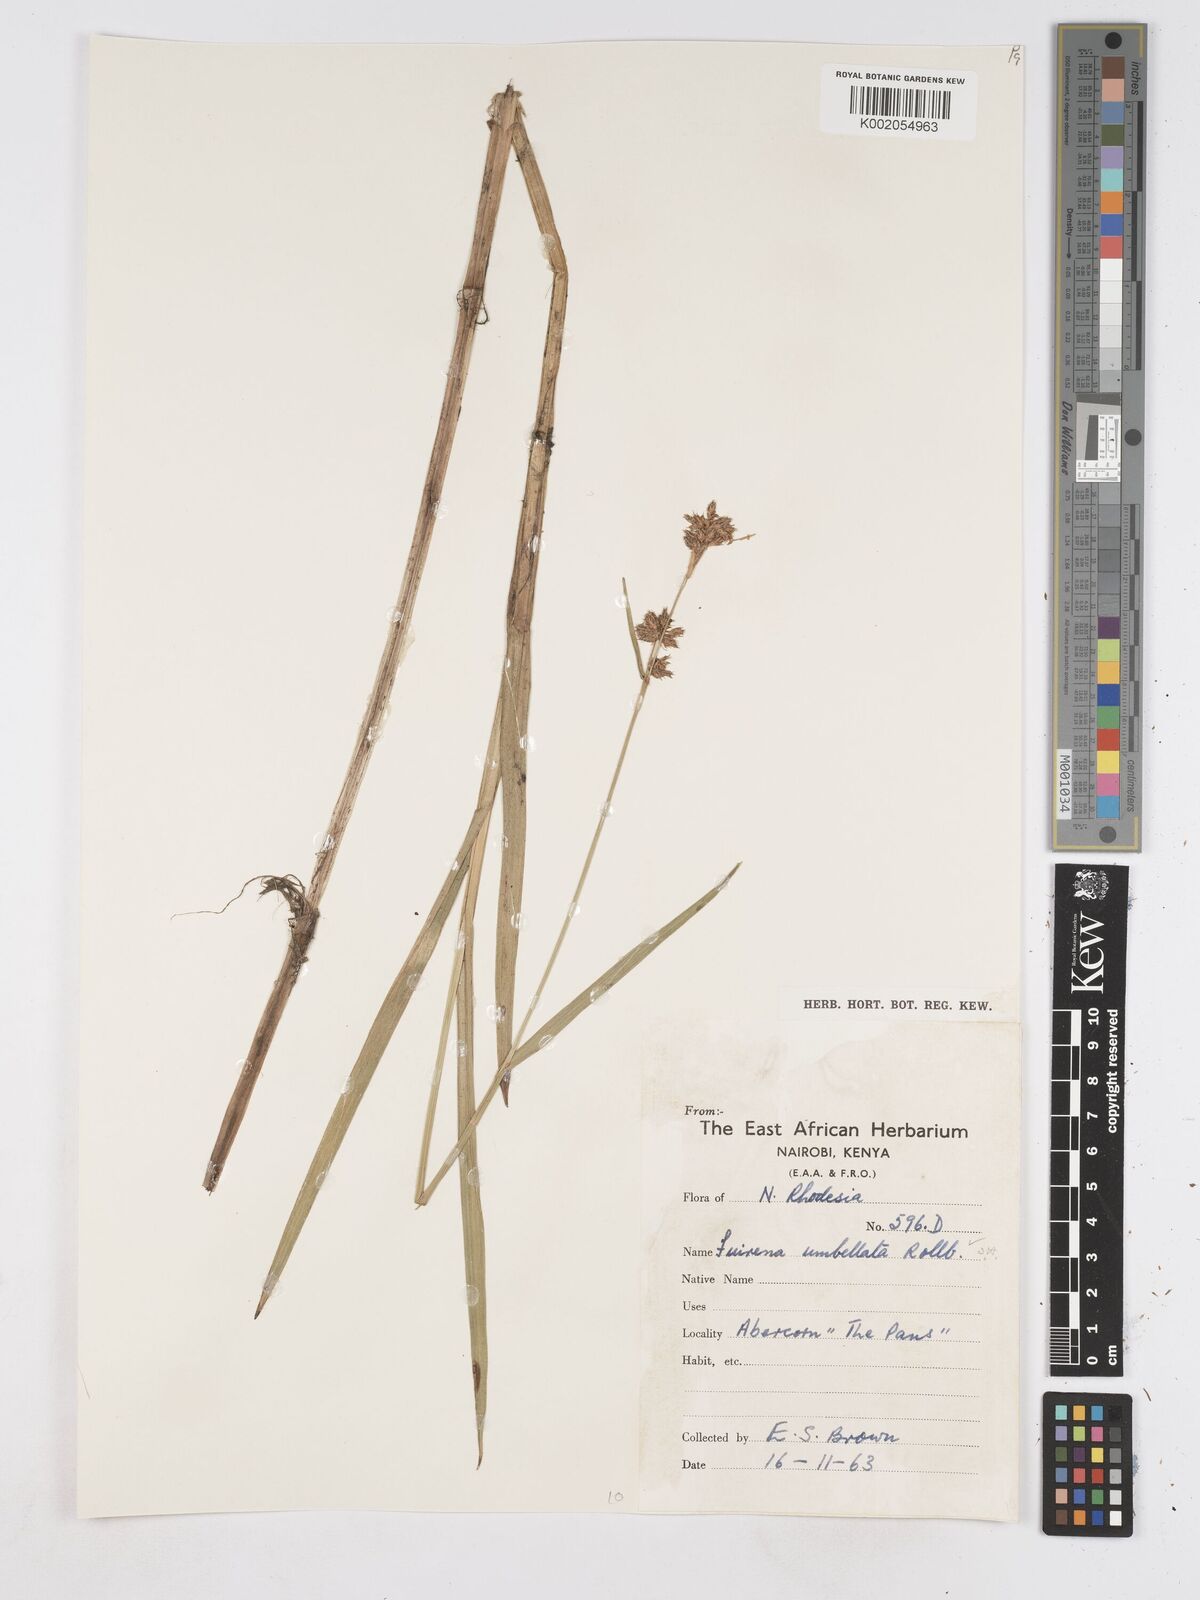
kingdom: Plantae
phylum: Tracheophyta
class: Liliopsida
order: Poales
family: Cyperaceae
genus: Fuirena
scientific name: Fuirena umbellata
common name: Yefen
